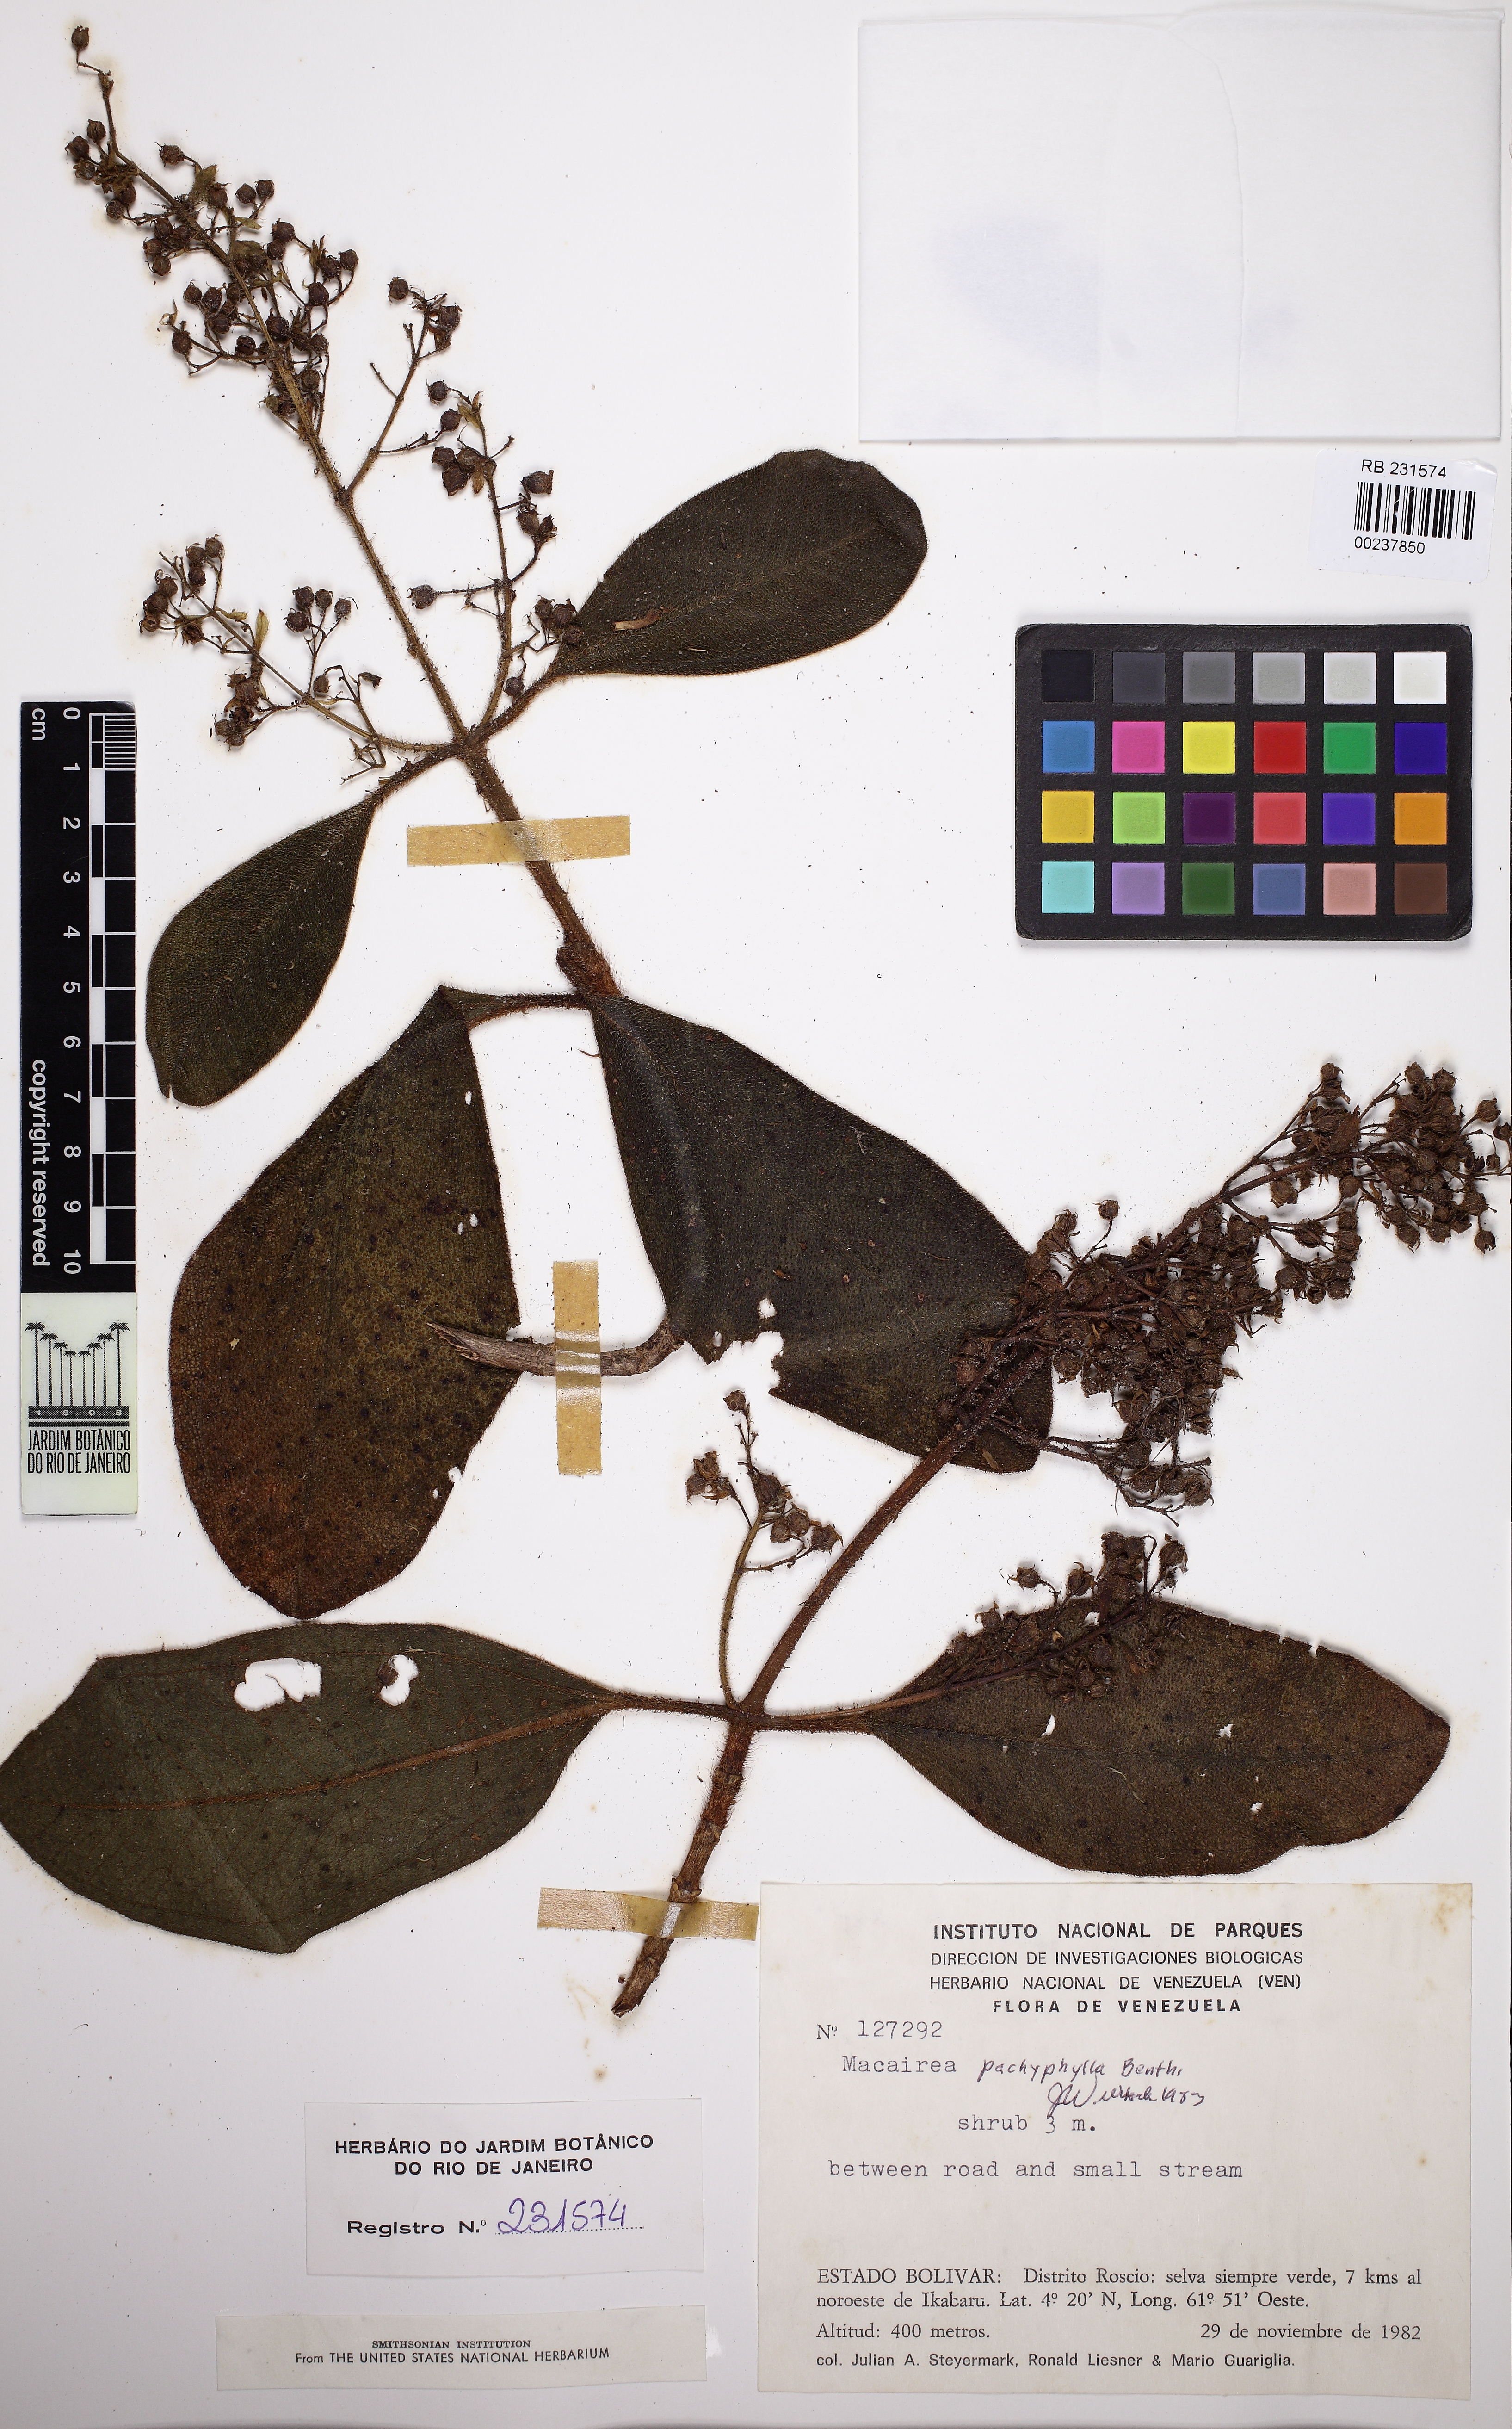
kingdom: Plantae
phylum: Tracheophyta
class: Magnoliopsida
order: Myrtales
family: Melastomataceae
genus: Macairea
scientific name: Macairea pachyphylla
